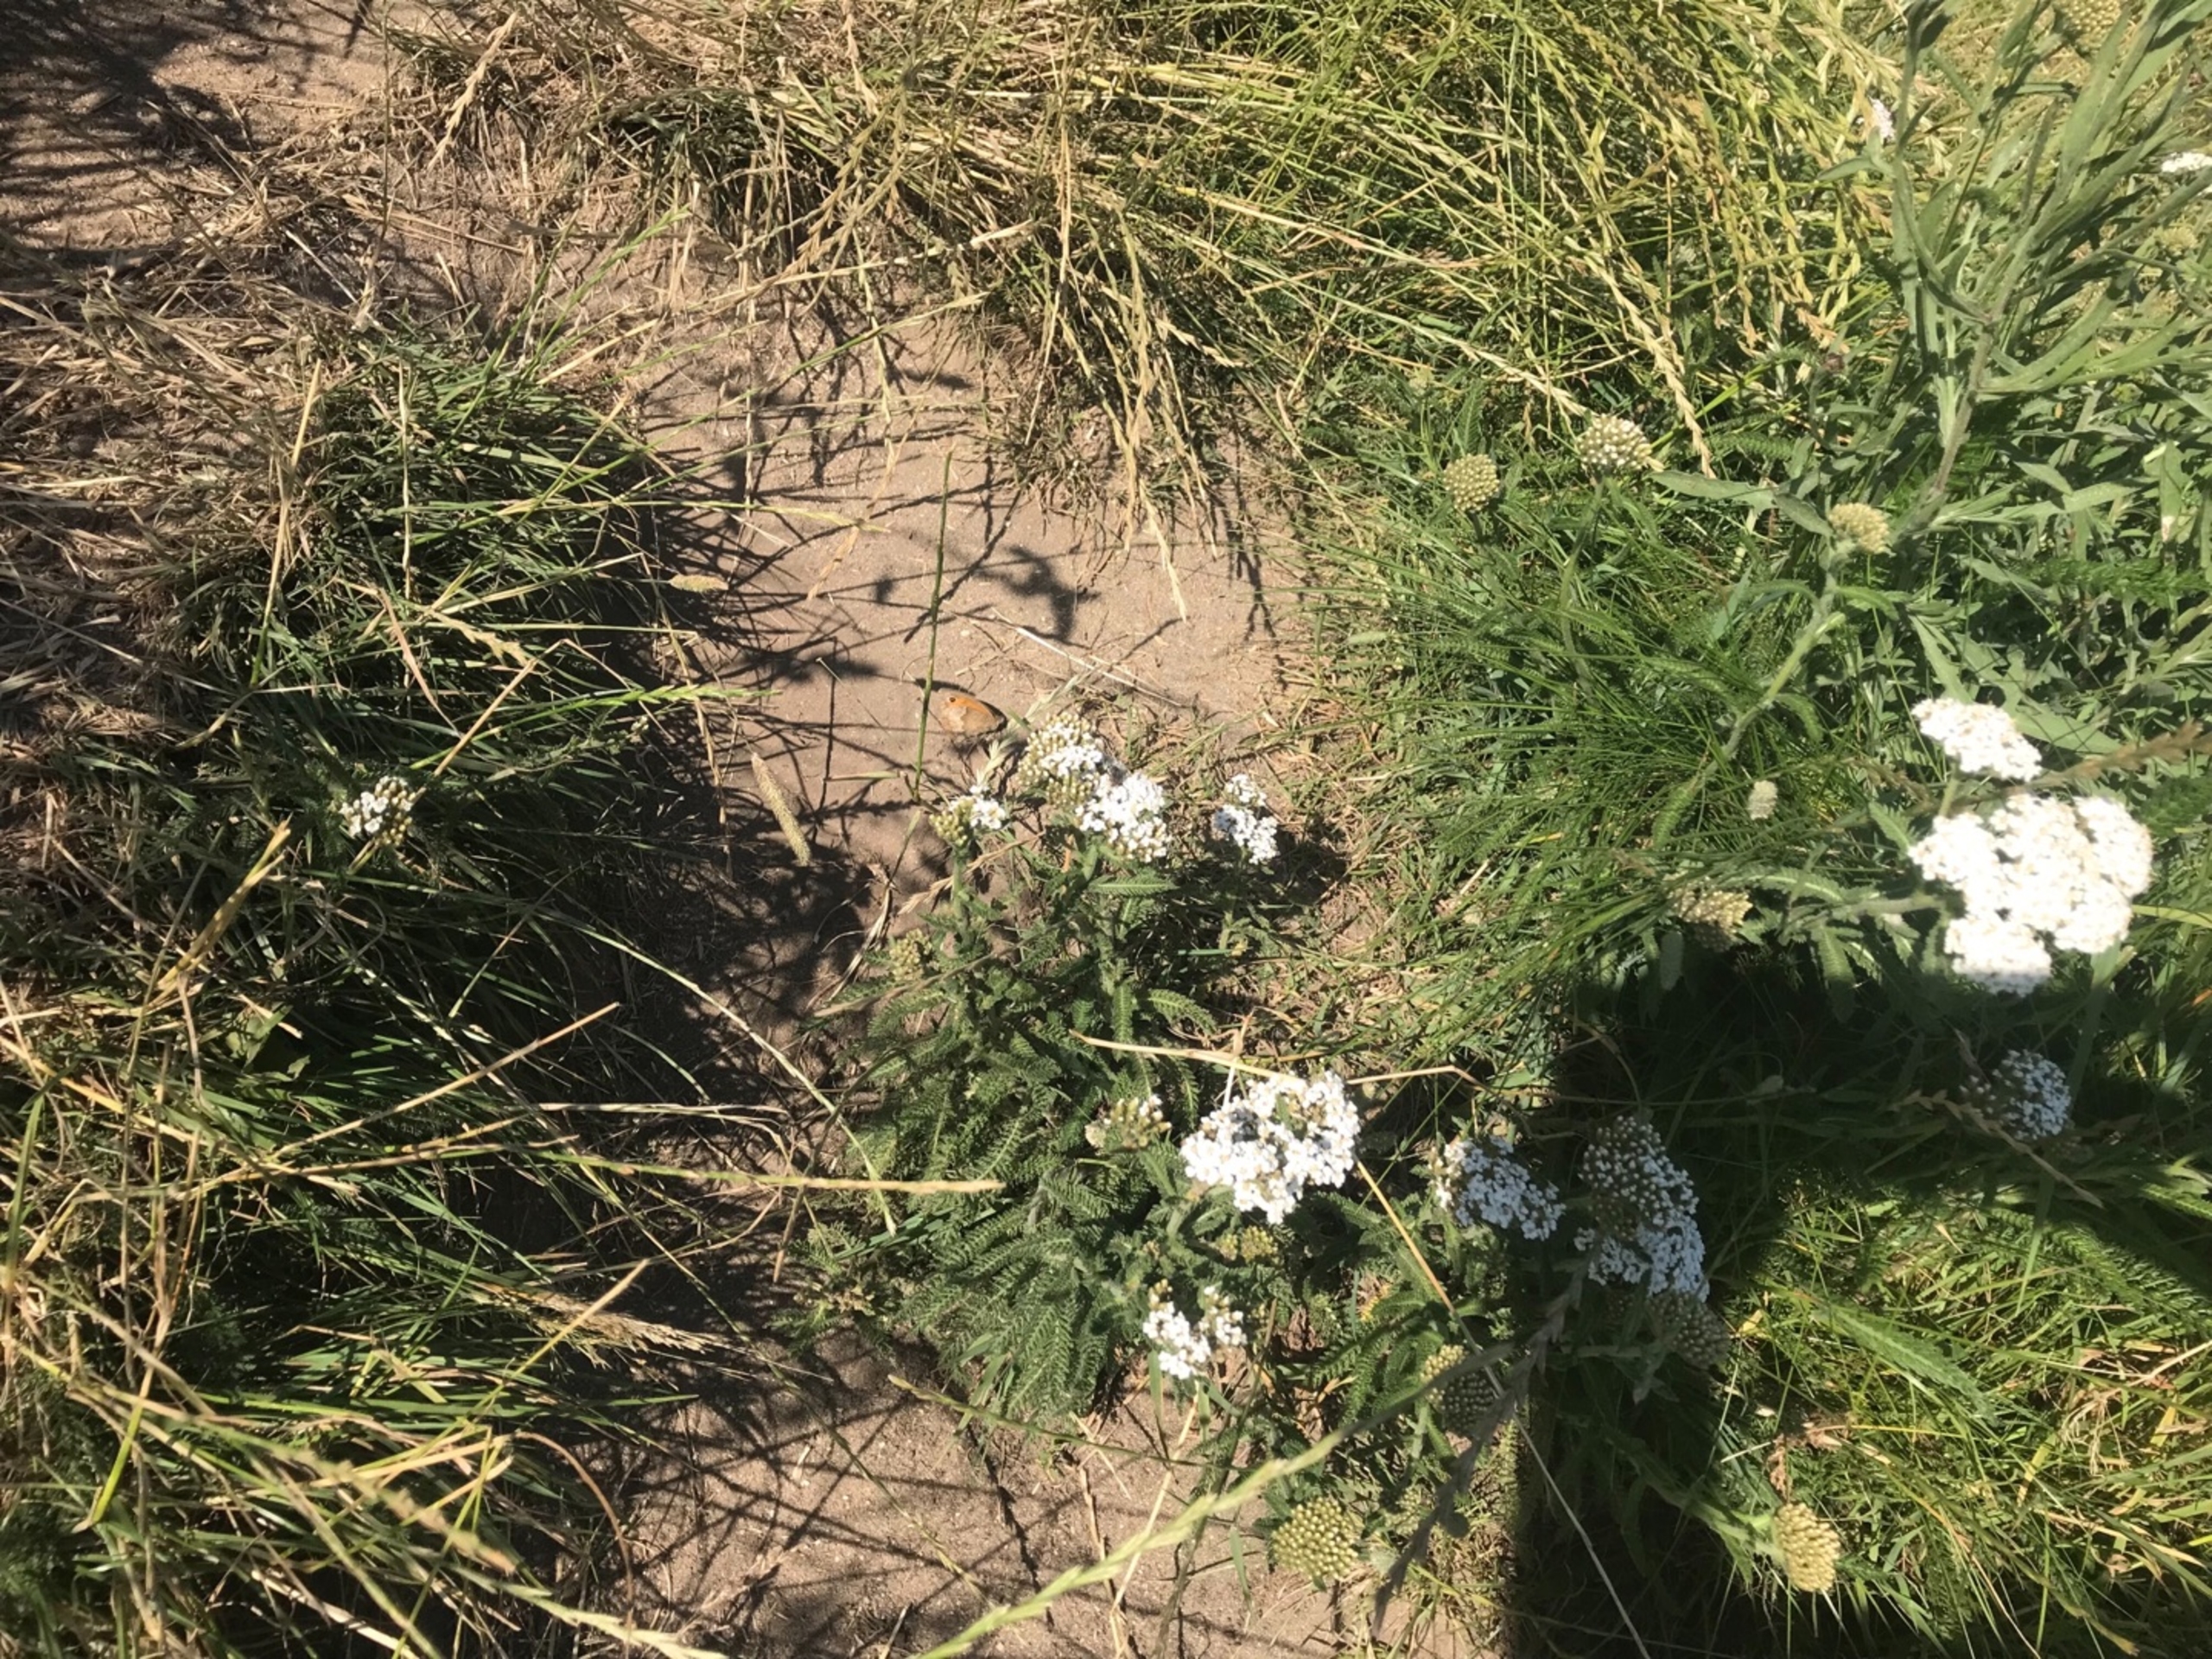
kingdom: Animalia
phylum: Arthropoda
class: Insecta
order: Lepidoptera
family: Nymphalidae
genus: Maniola
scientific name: Maniola jurtina
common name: Græsrandøje
